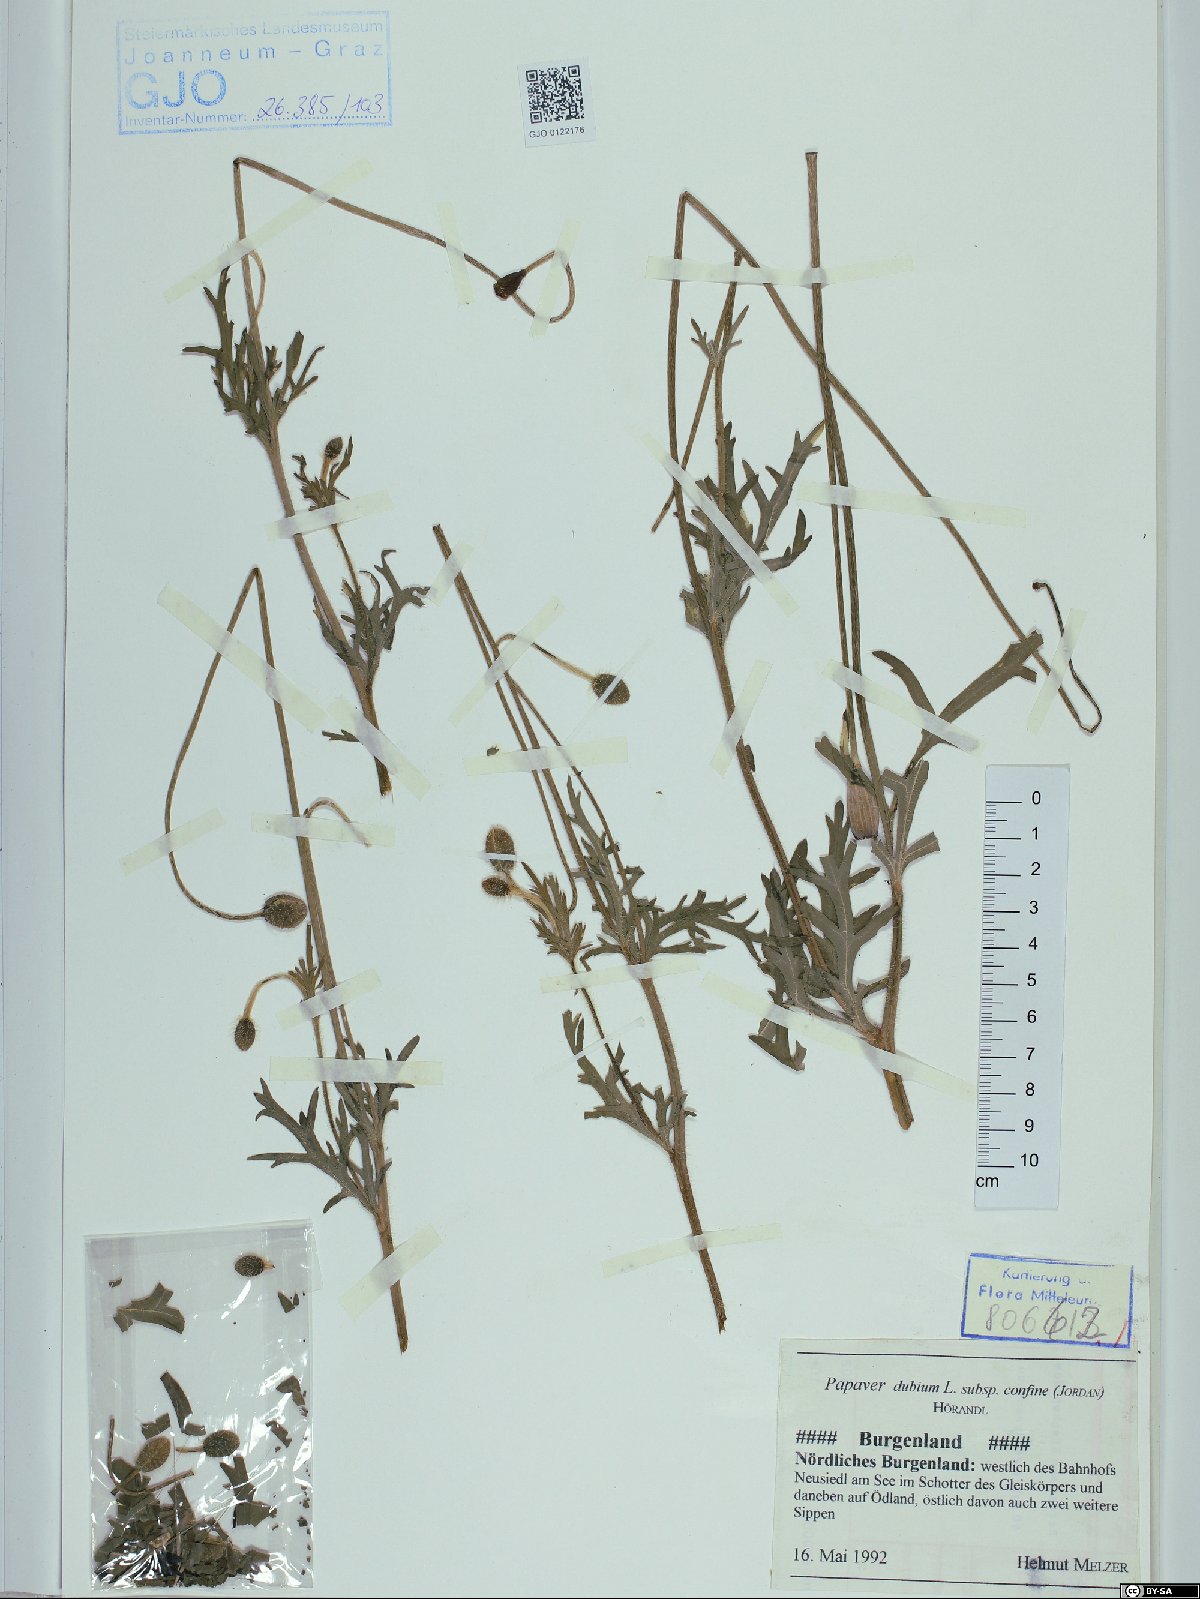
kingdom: Plantae
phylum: Tracheophyta
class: Magnoliopsida
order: Ranunculales
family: Papaveraceae
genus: Papaver
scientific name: Papaver confine
